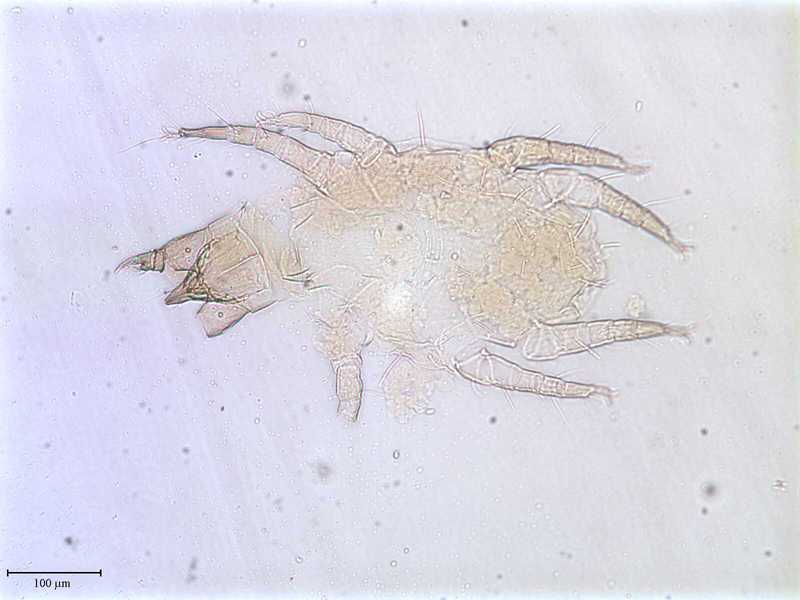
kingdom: Animalia
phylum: Arthropoda
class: Arachnida
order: Trombidiformes
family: Cheyletidae
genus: Cheletophyes
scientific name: Cheletophyes vitzthumi
